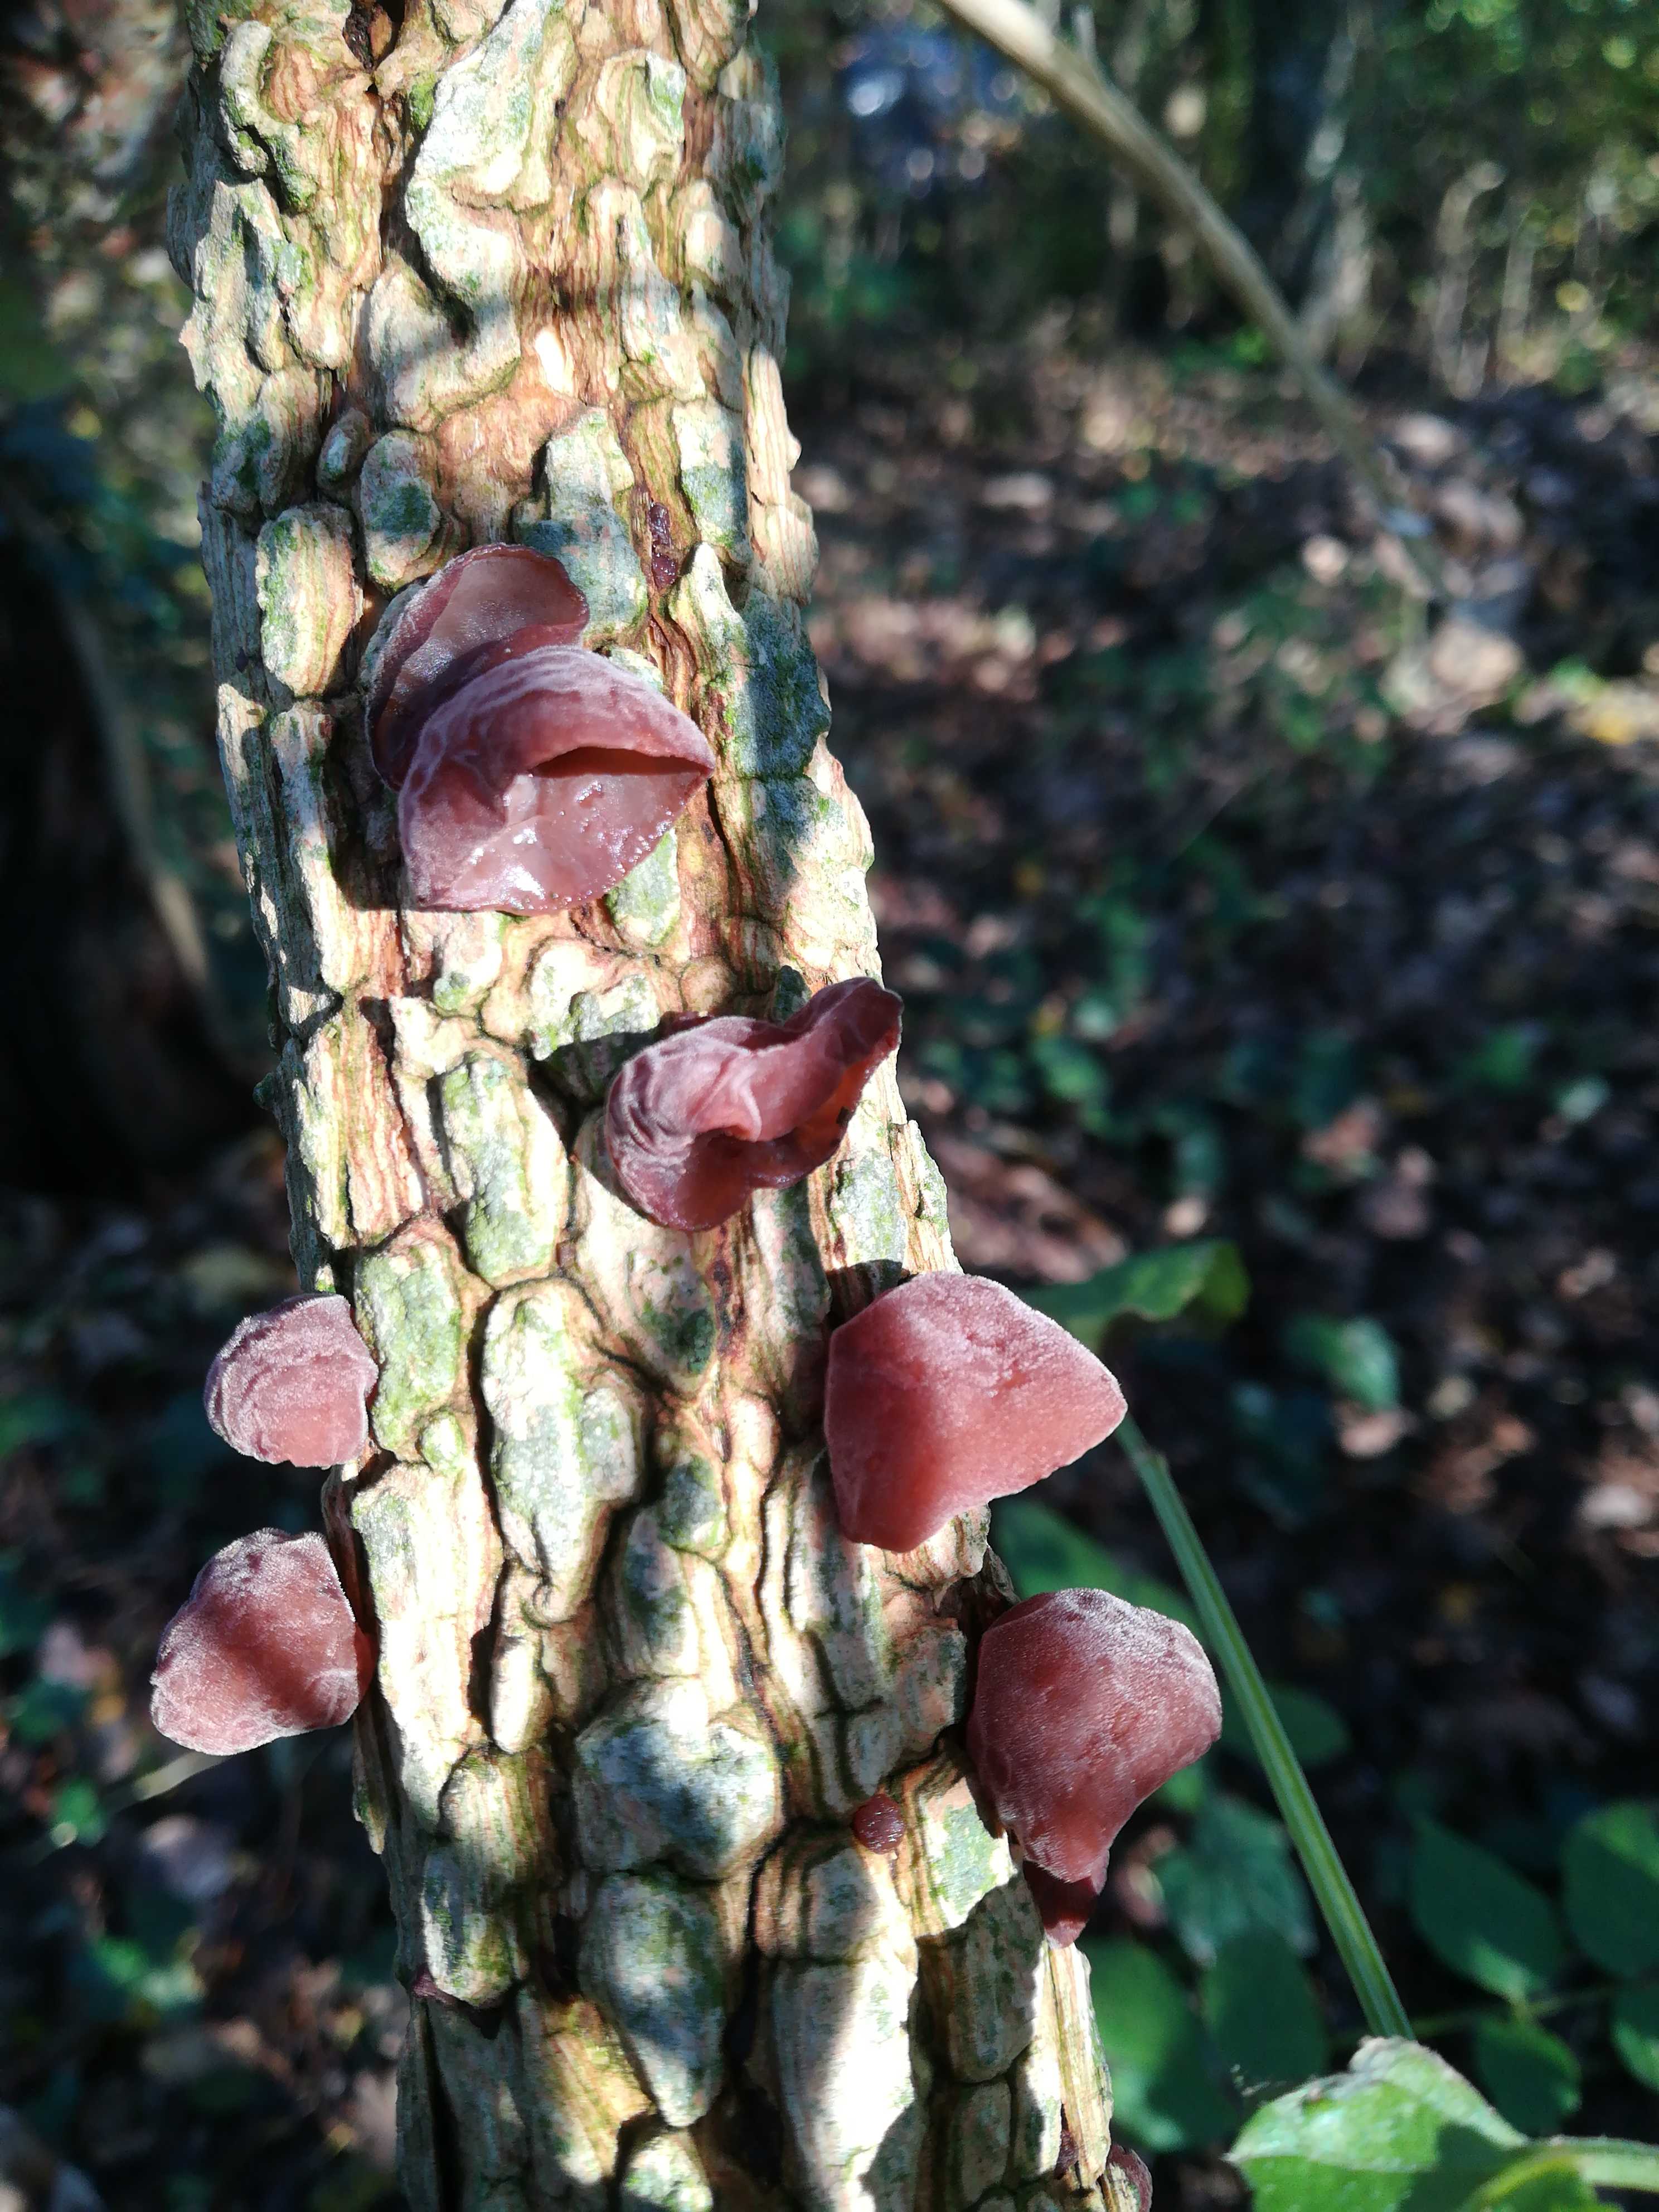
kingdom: Fungi
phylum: Basidiomycota
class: Agaricomycetes
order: Auriculariales
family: Auriculariaceae
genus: Auricularia
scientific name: Auricularia auricula-judae
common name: almindelig judasøre
